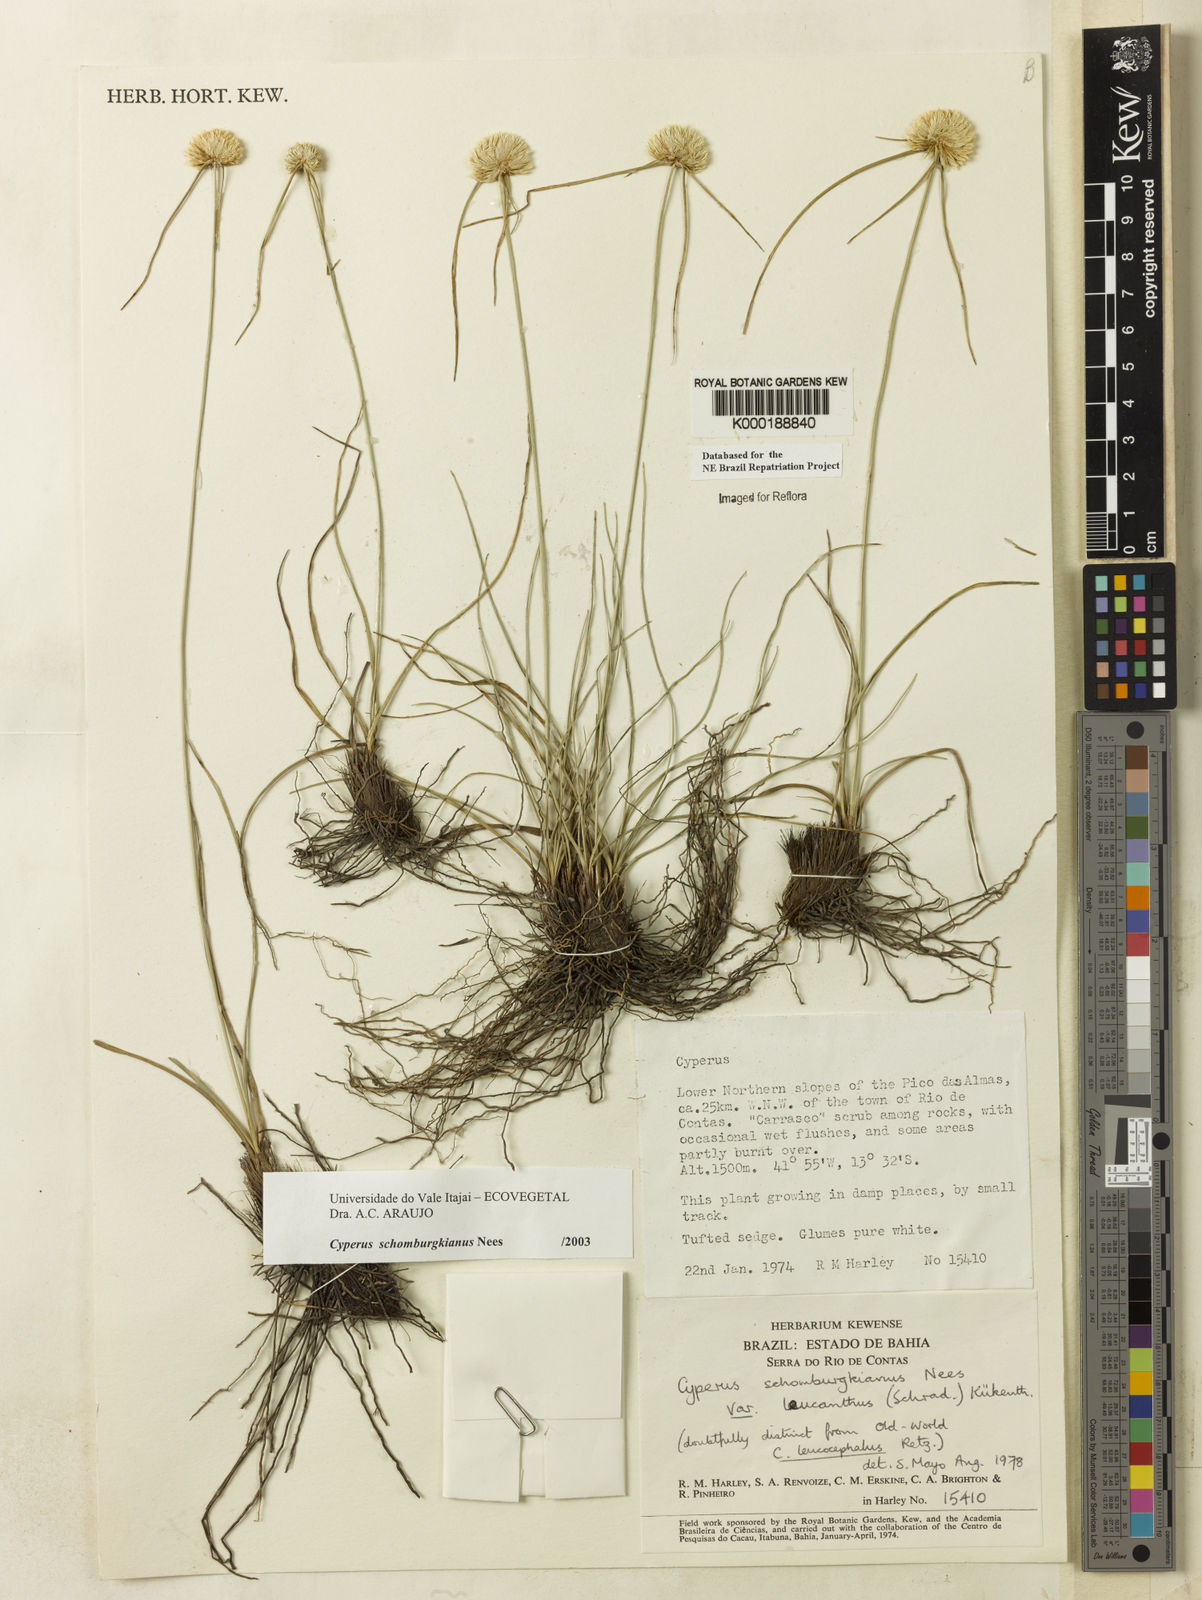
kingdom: Plantae
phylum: Tracheophyta
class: Liliopsida
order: Poales
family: Cyperaceae
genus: Cyperus
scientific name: Cyperus schomburgkianus
